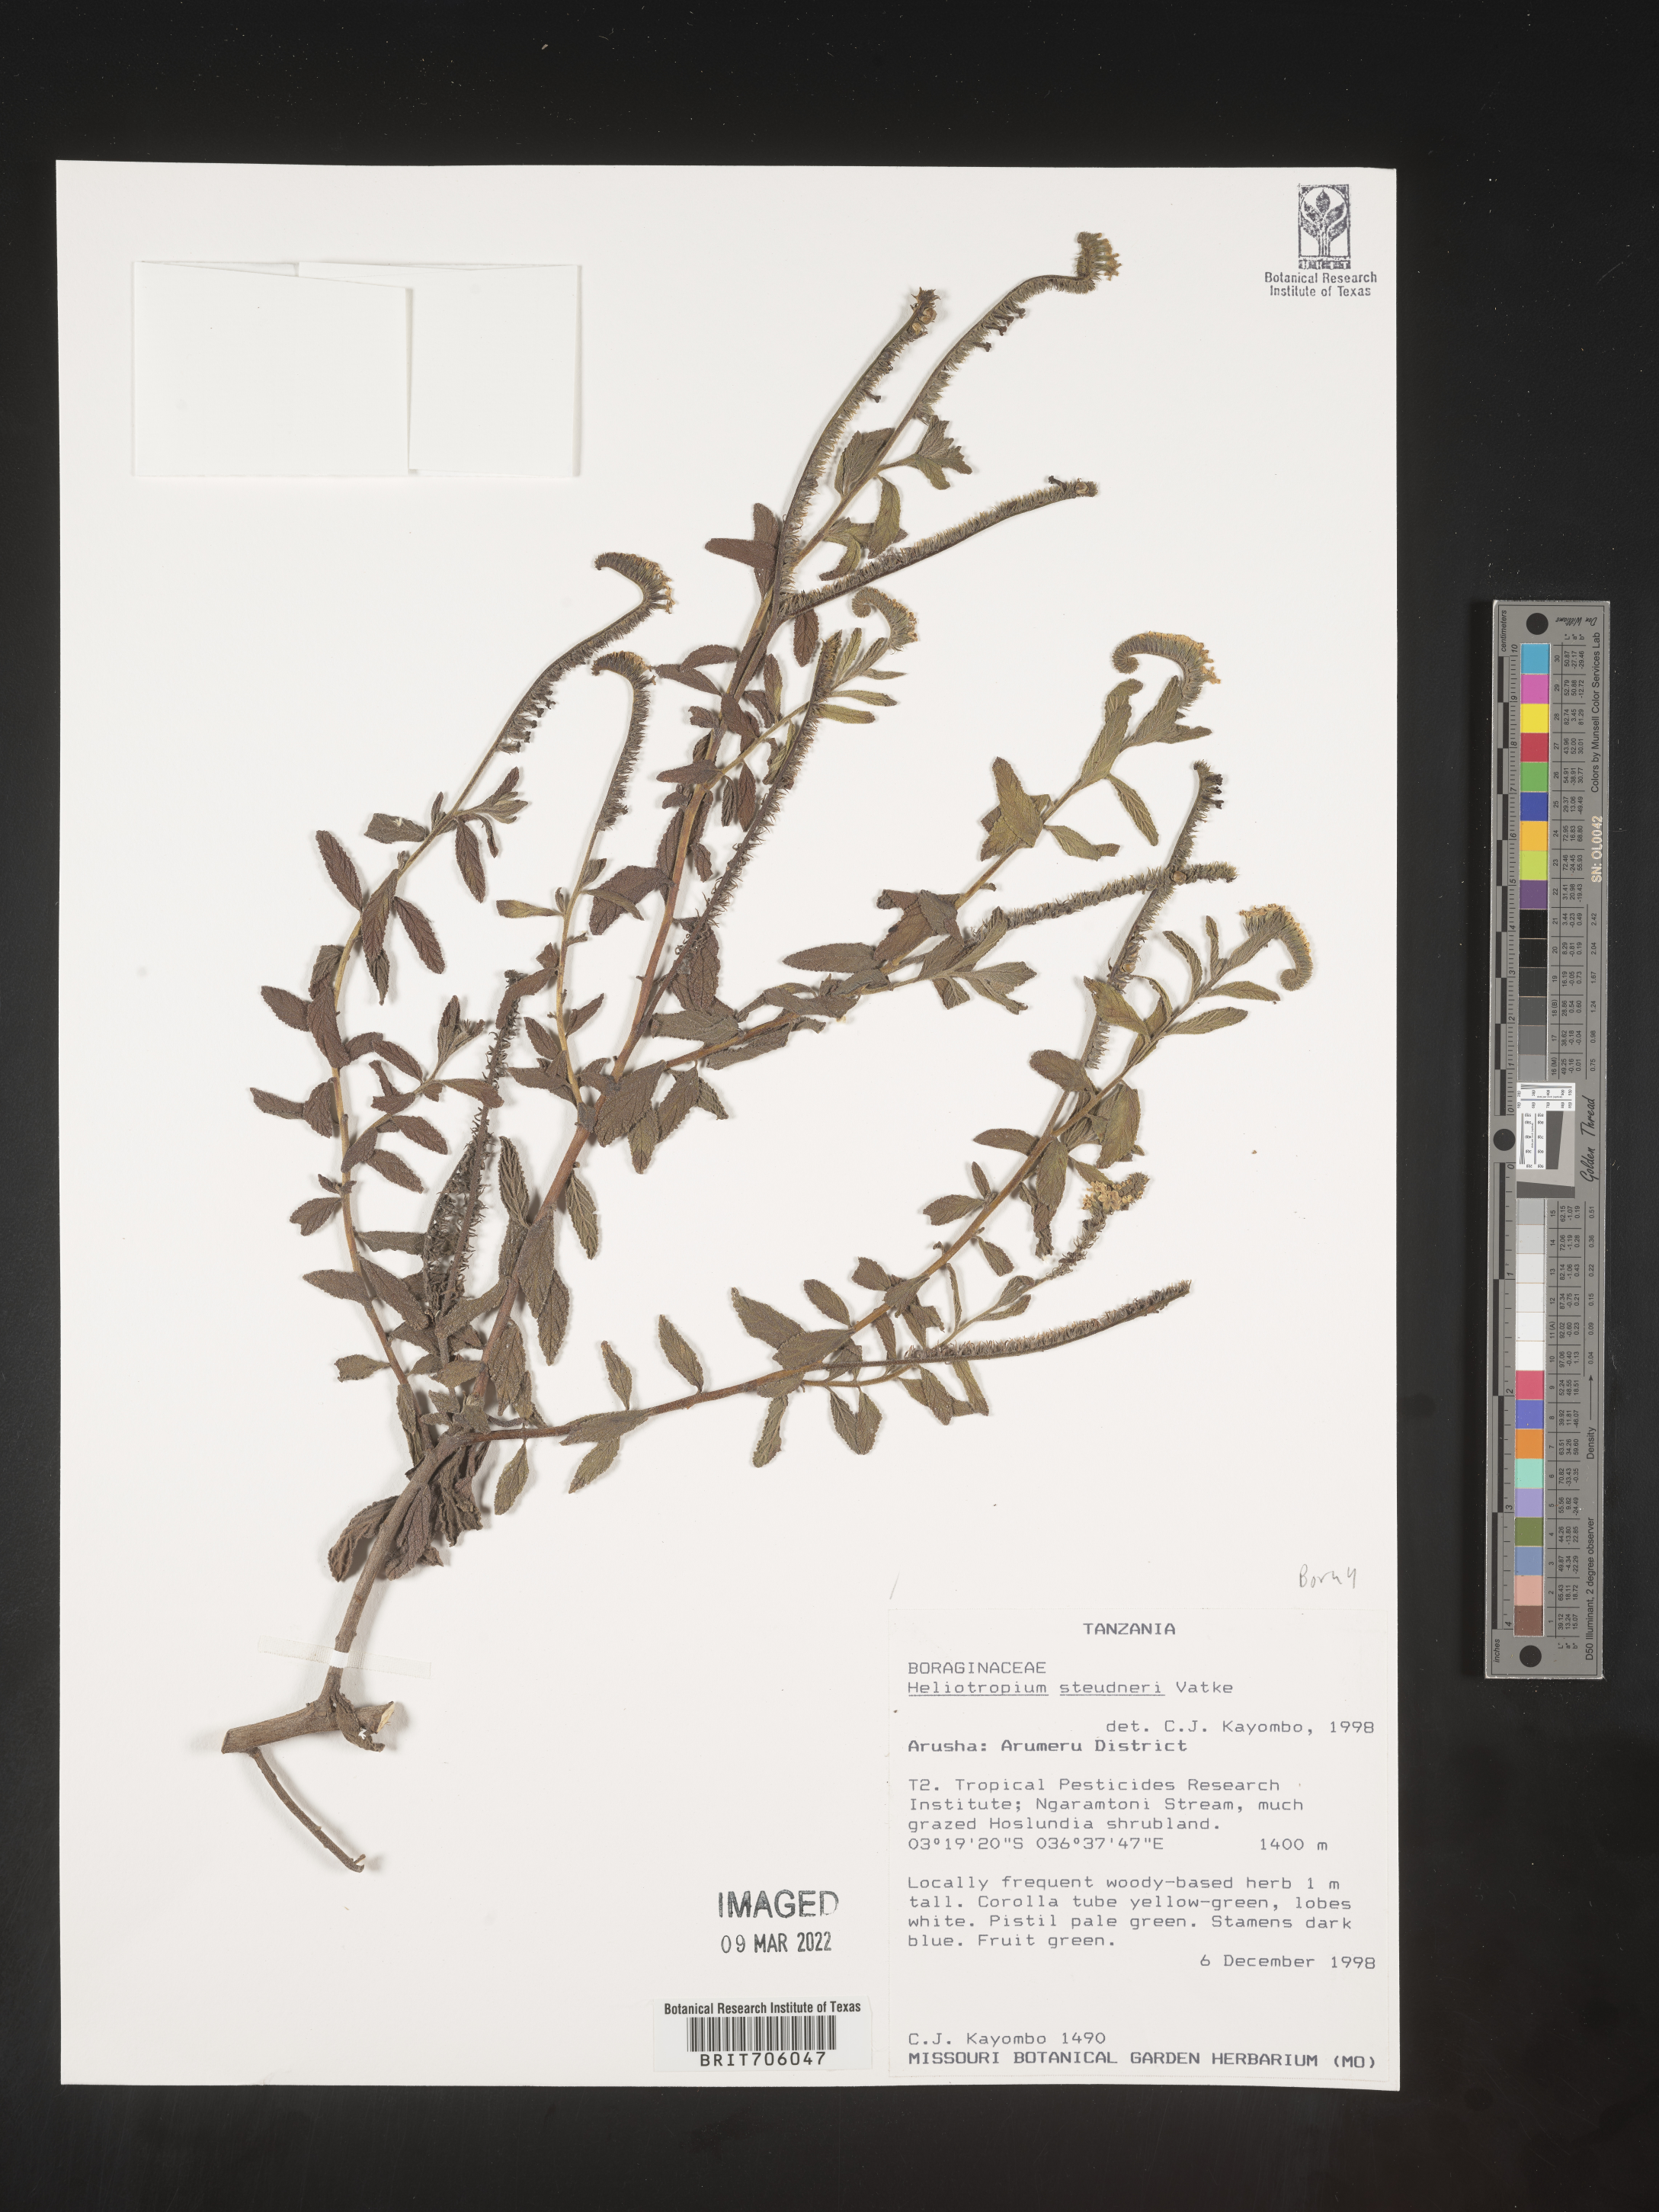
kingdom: Plantae
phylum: Tracheophyta
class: Magnoliopsida
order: Boraginales
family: Heliotropiaceae
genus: Heliotropium
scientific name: Heliotropium
